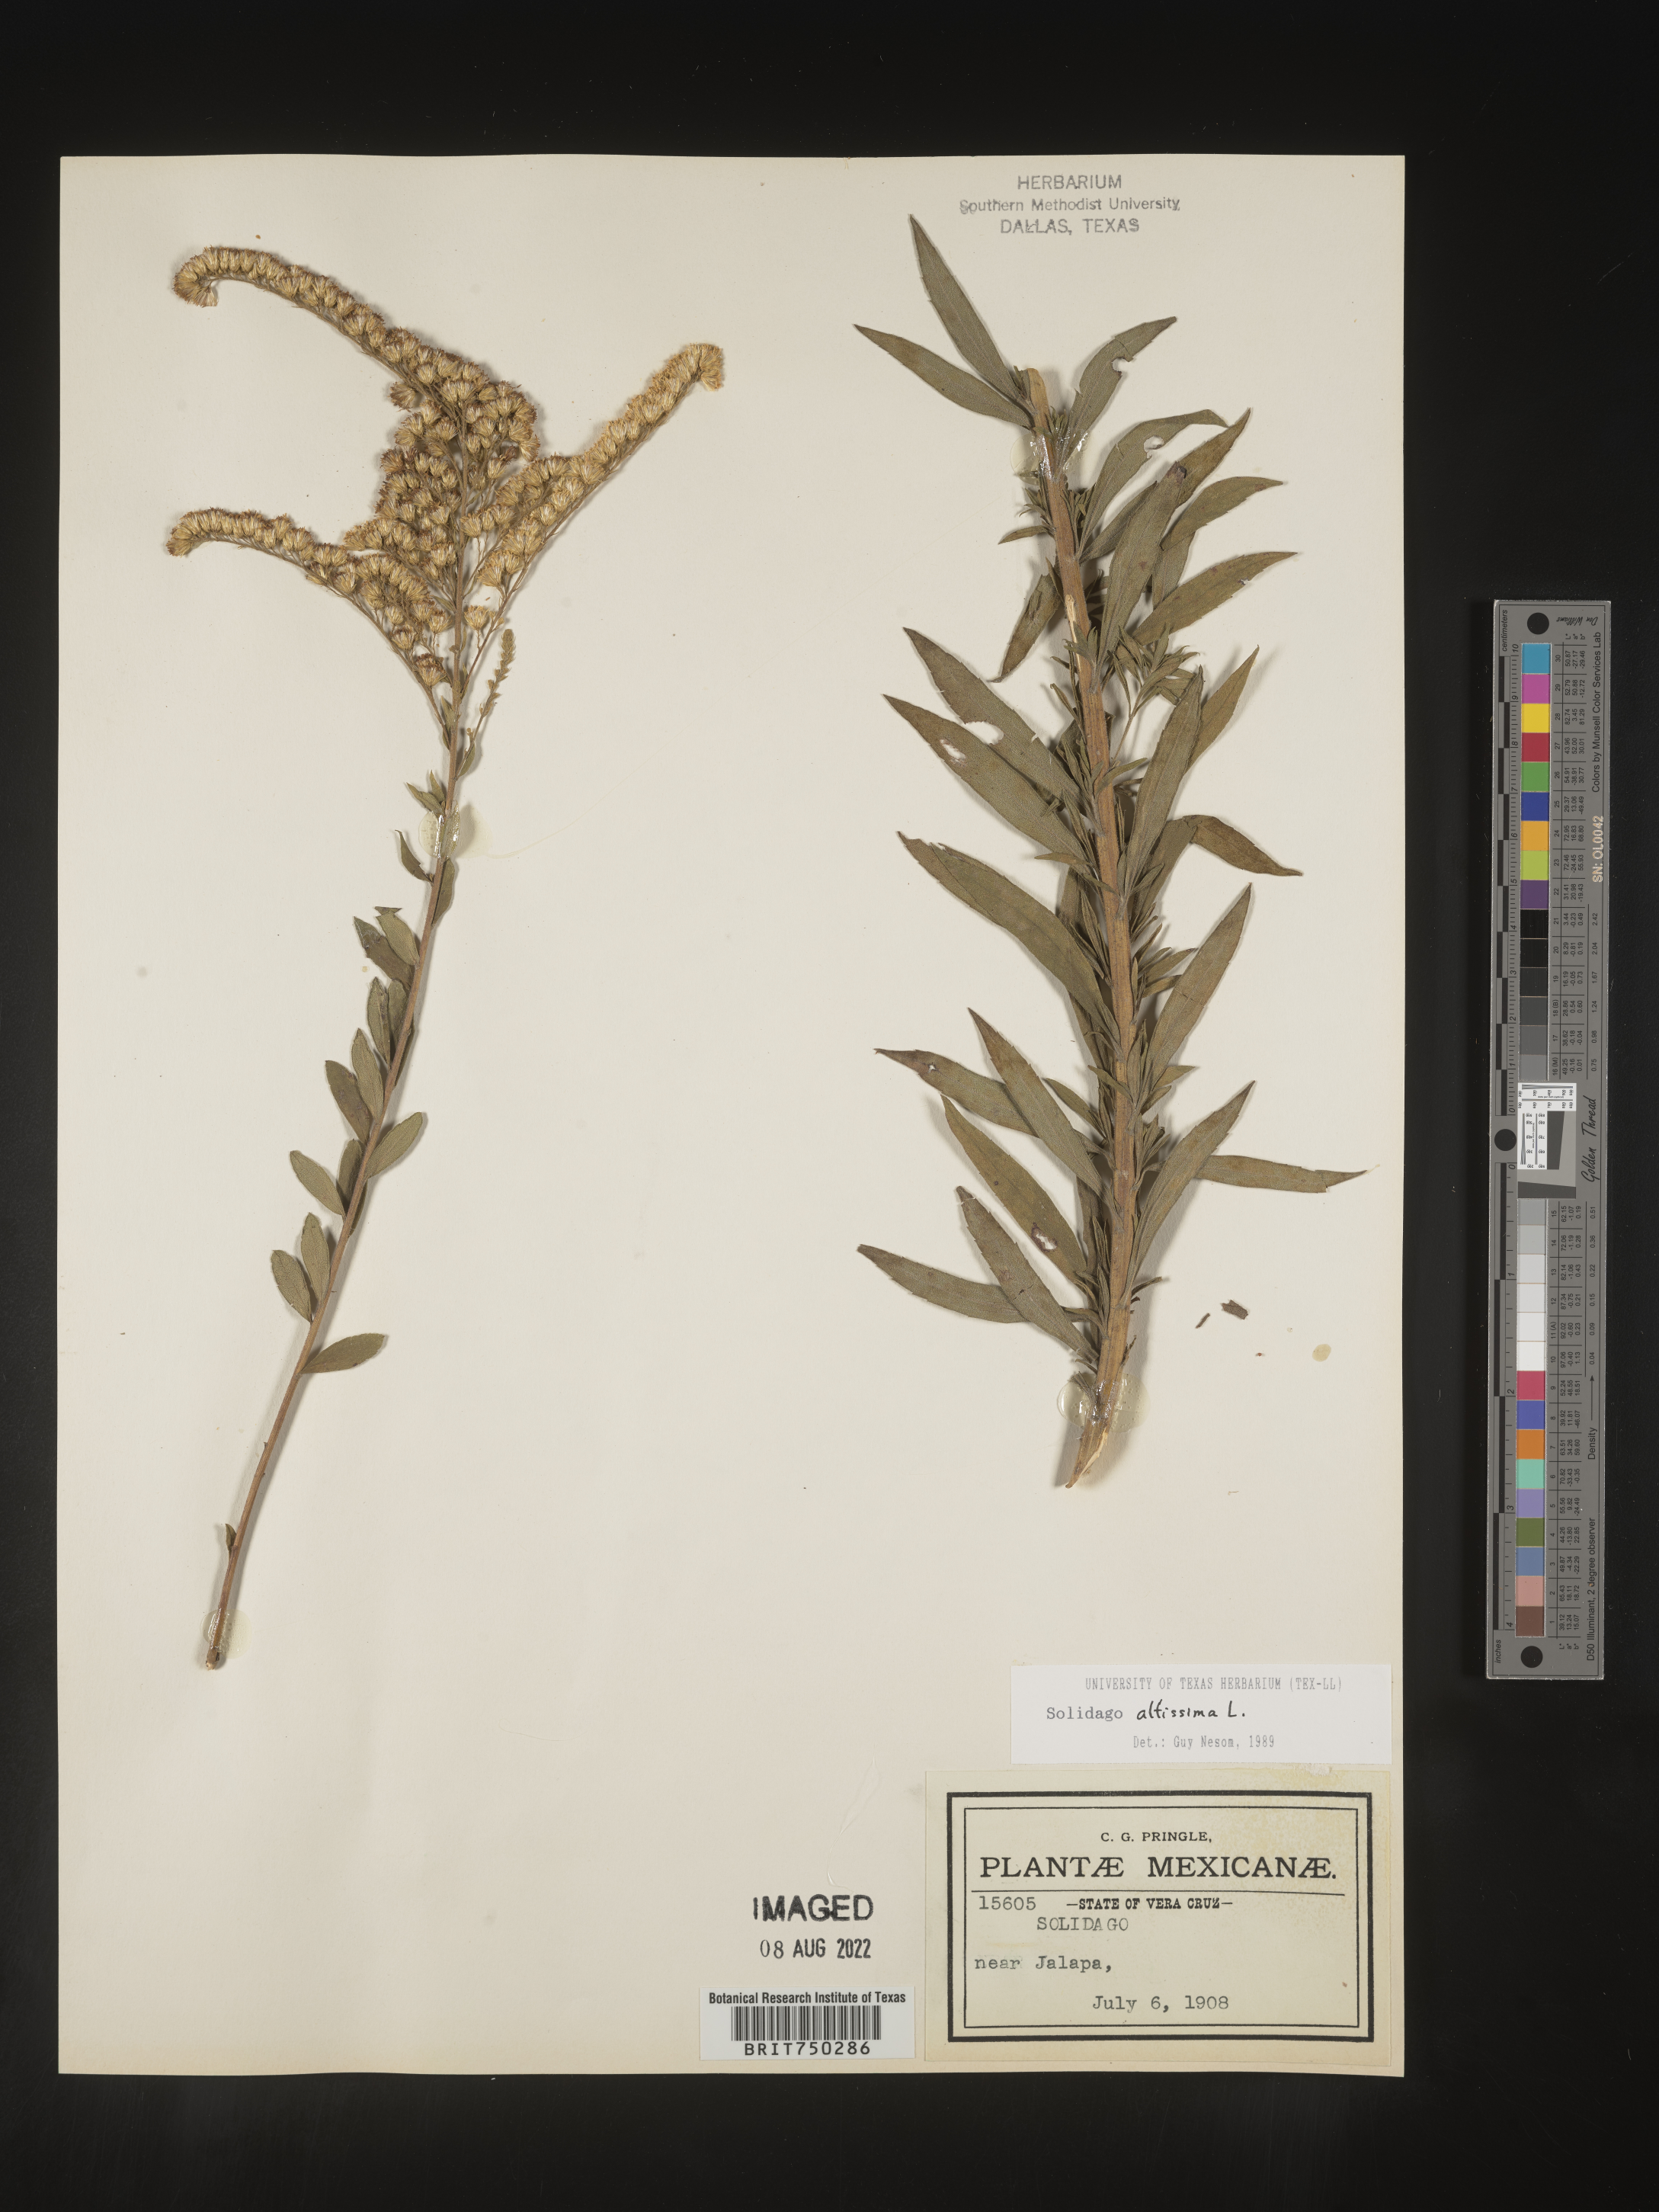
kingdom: Plantae
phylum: Tracheophyta
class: Magnoliopsida
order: Asterales
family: Asteraceae
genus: Solidago
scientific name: Solidago altissima
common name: Late goldenrod
